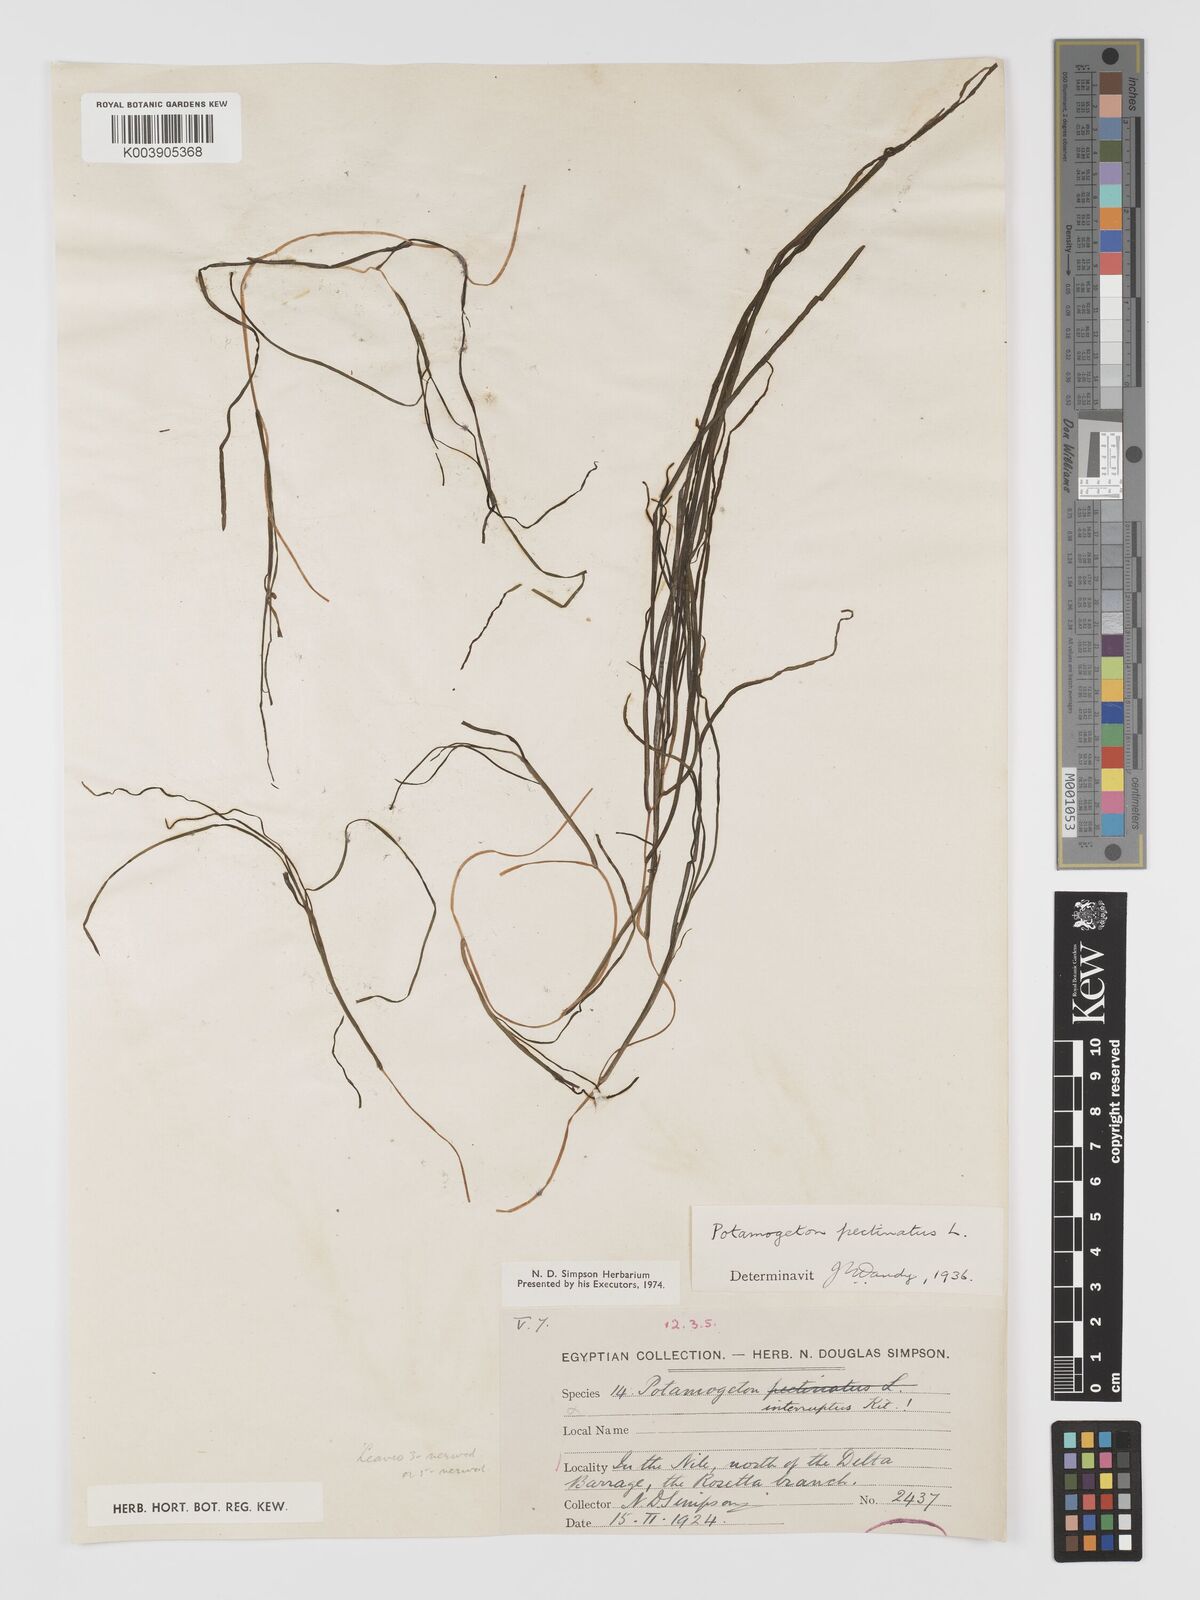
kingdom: Plantae
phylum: Tracheophyta
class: Liliopsida
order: Alismatales
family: Potamogetonaceae
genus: Stuckenia
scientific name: Stuckenia pectinata
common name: Sago pondweed
